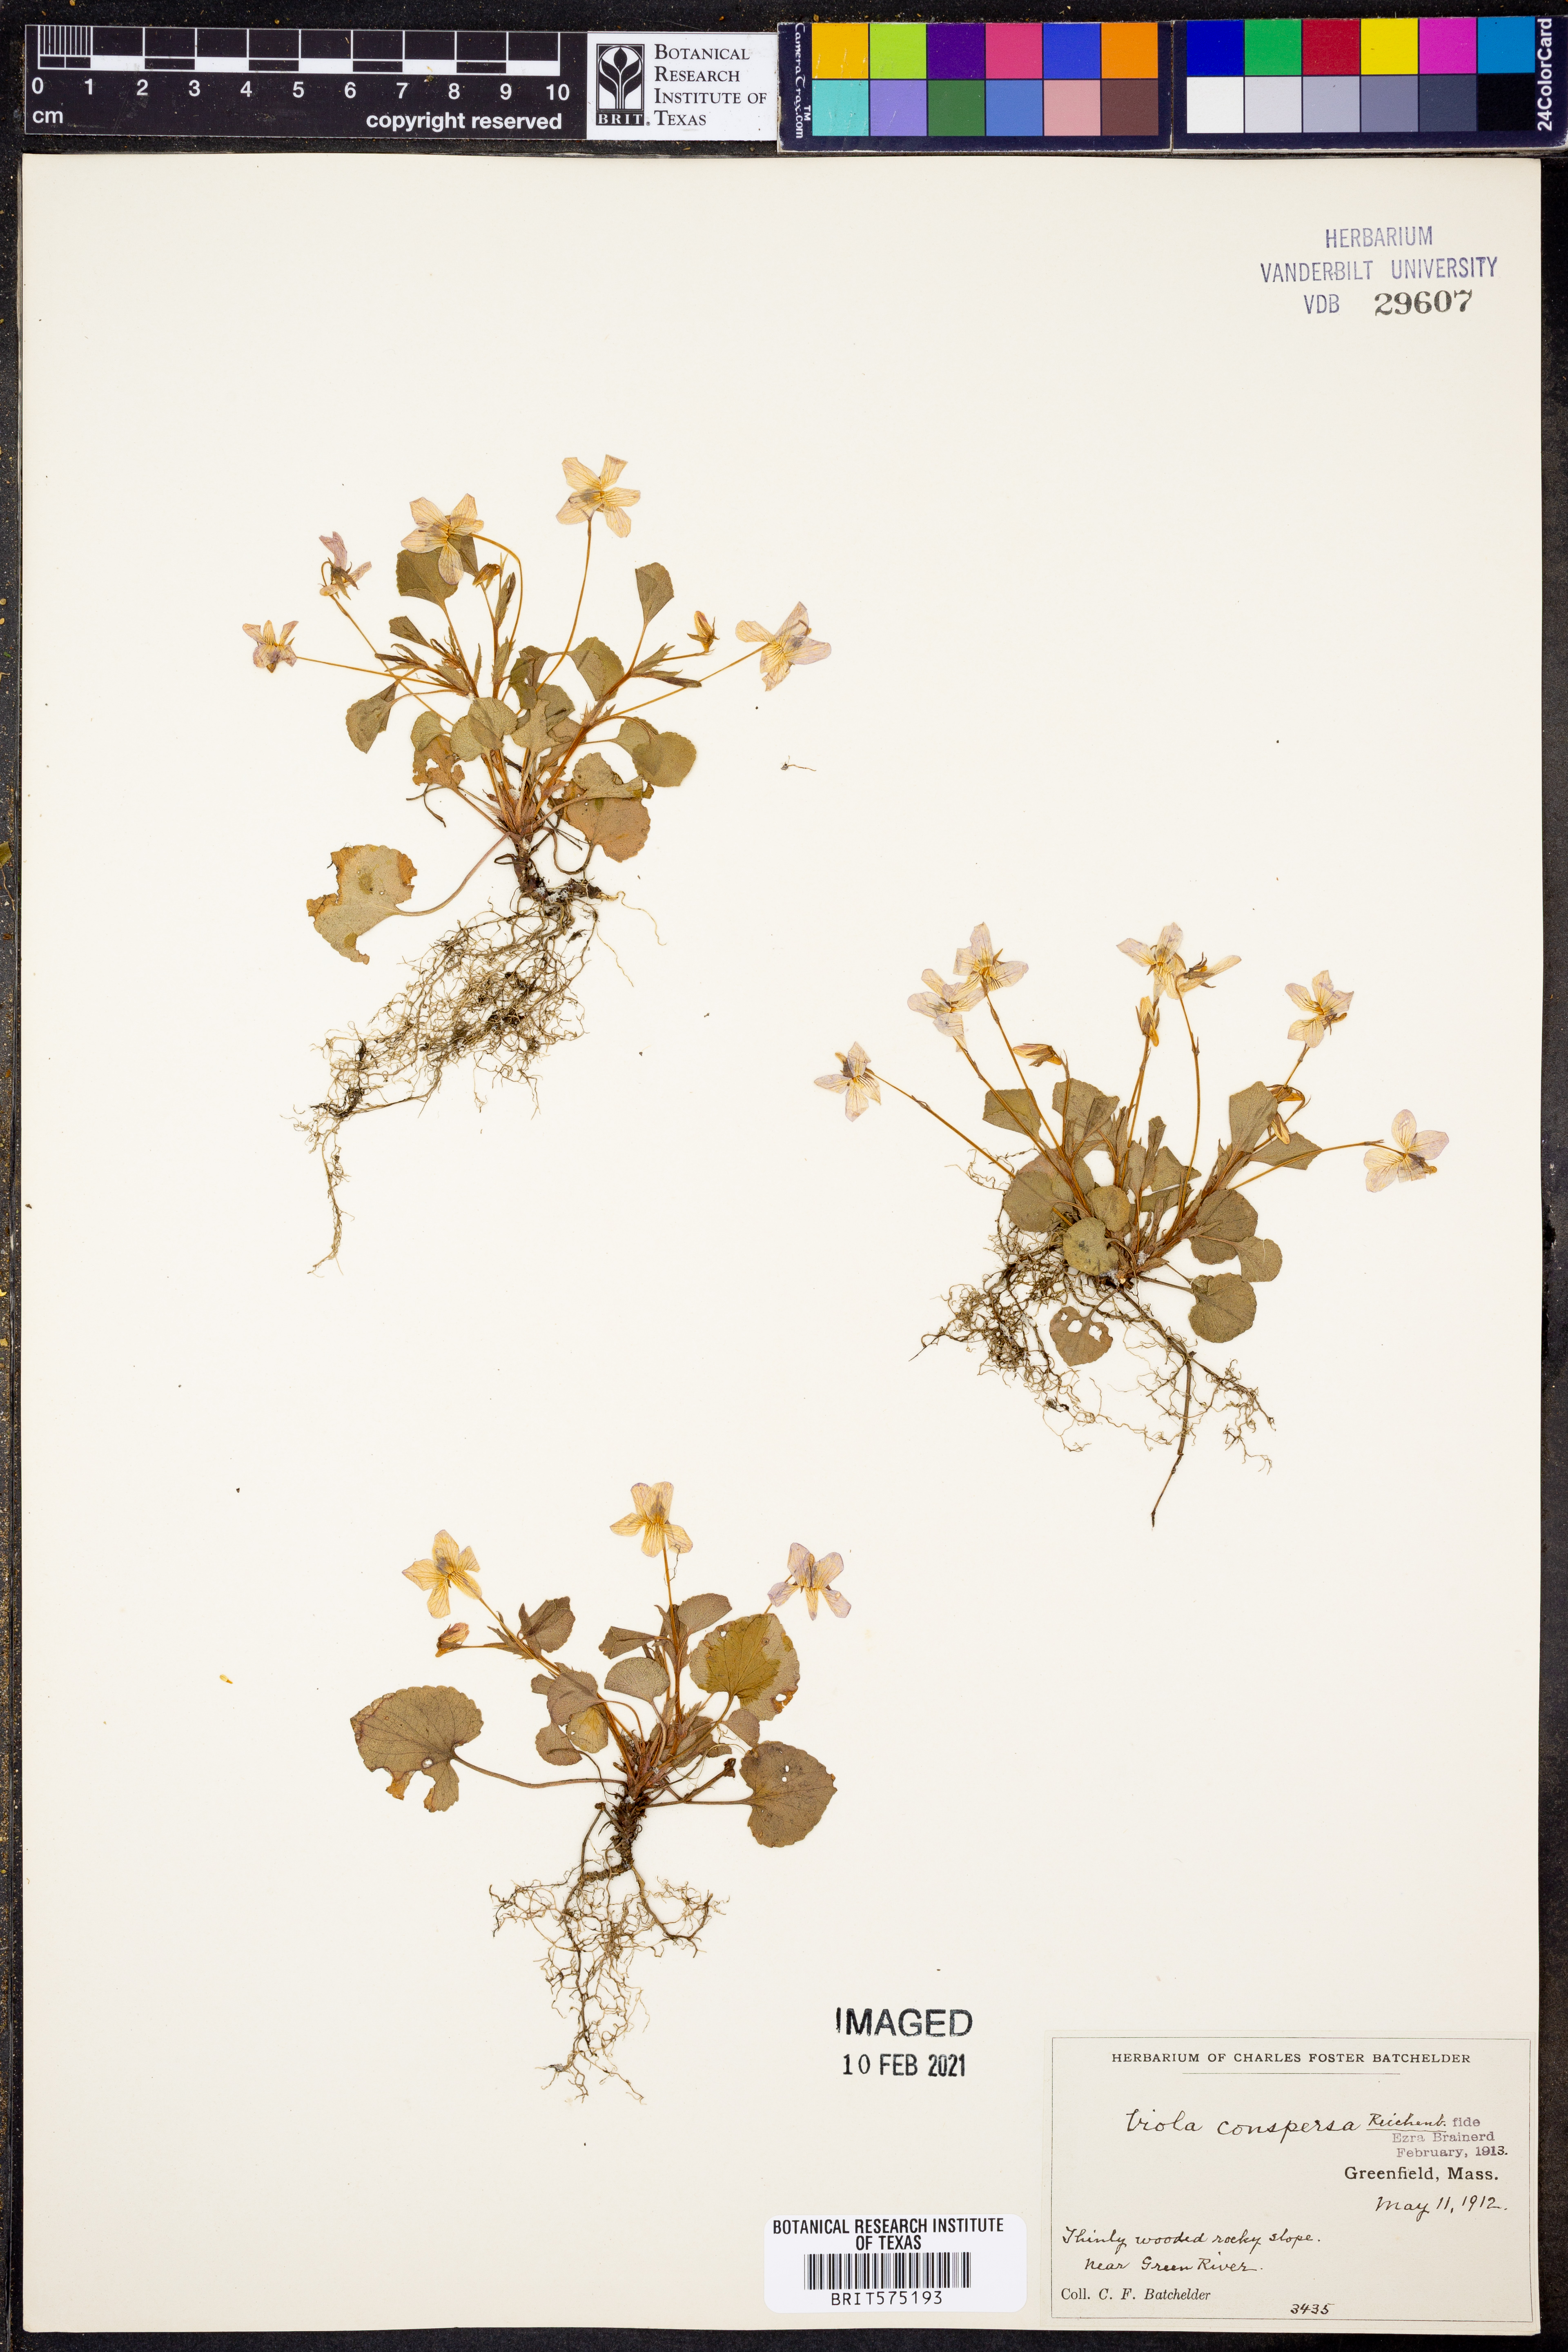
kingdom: Plantae
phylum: Tracheophyta
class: Magnoliopsida
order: Malpighiales
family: Violaceae
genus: Viola
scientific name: Viola labradorica
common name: Labrador violet
